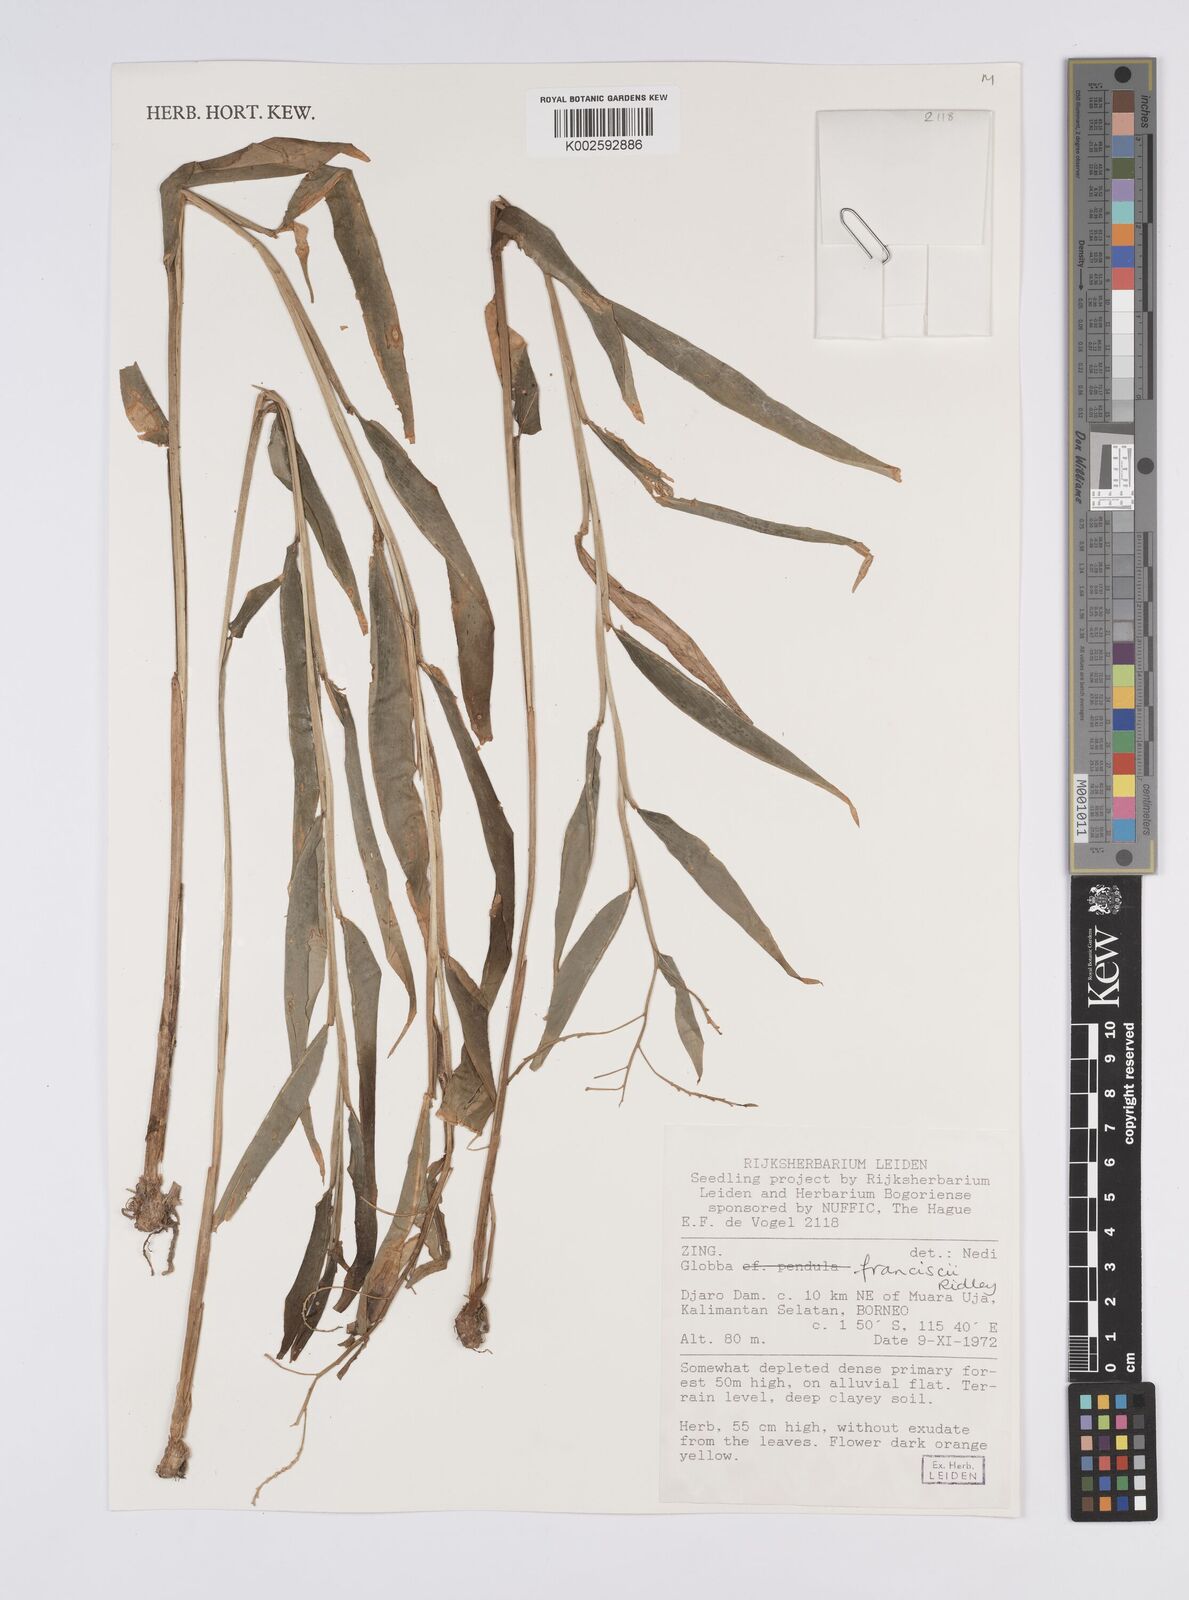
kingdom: Plantae
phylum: Tracheophyta
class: Liliopsida
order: Zingiberales
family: Zingiberaceae
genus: Globba
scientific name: Globba francisci
